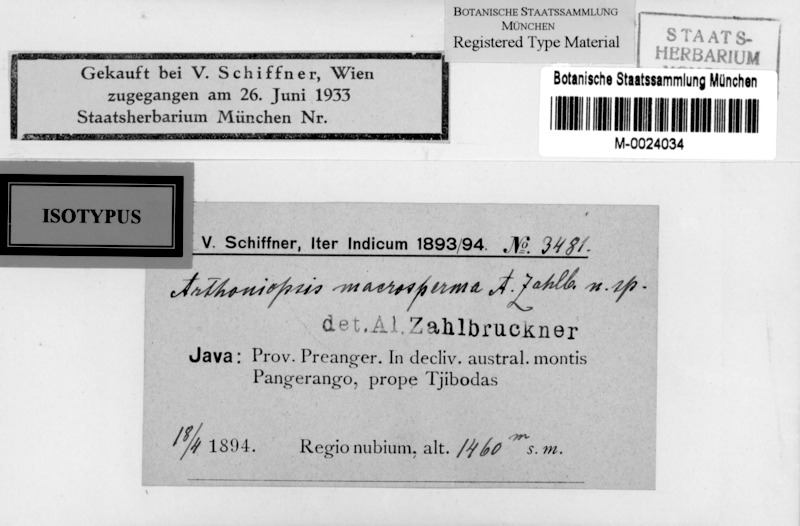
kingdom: Fungi
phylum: Ascomycota
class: Arthoniomycetes
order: Arthoniales
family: Arthoniaceae
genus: Eremothecella
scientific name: Eremothecella macrosperma
